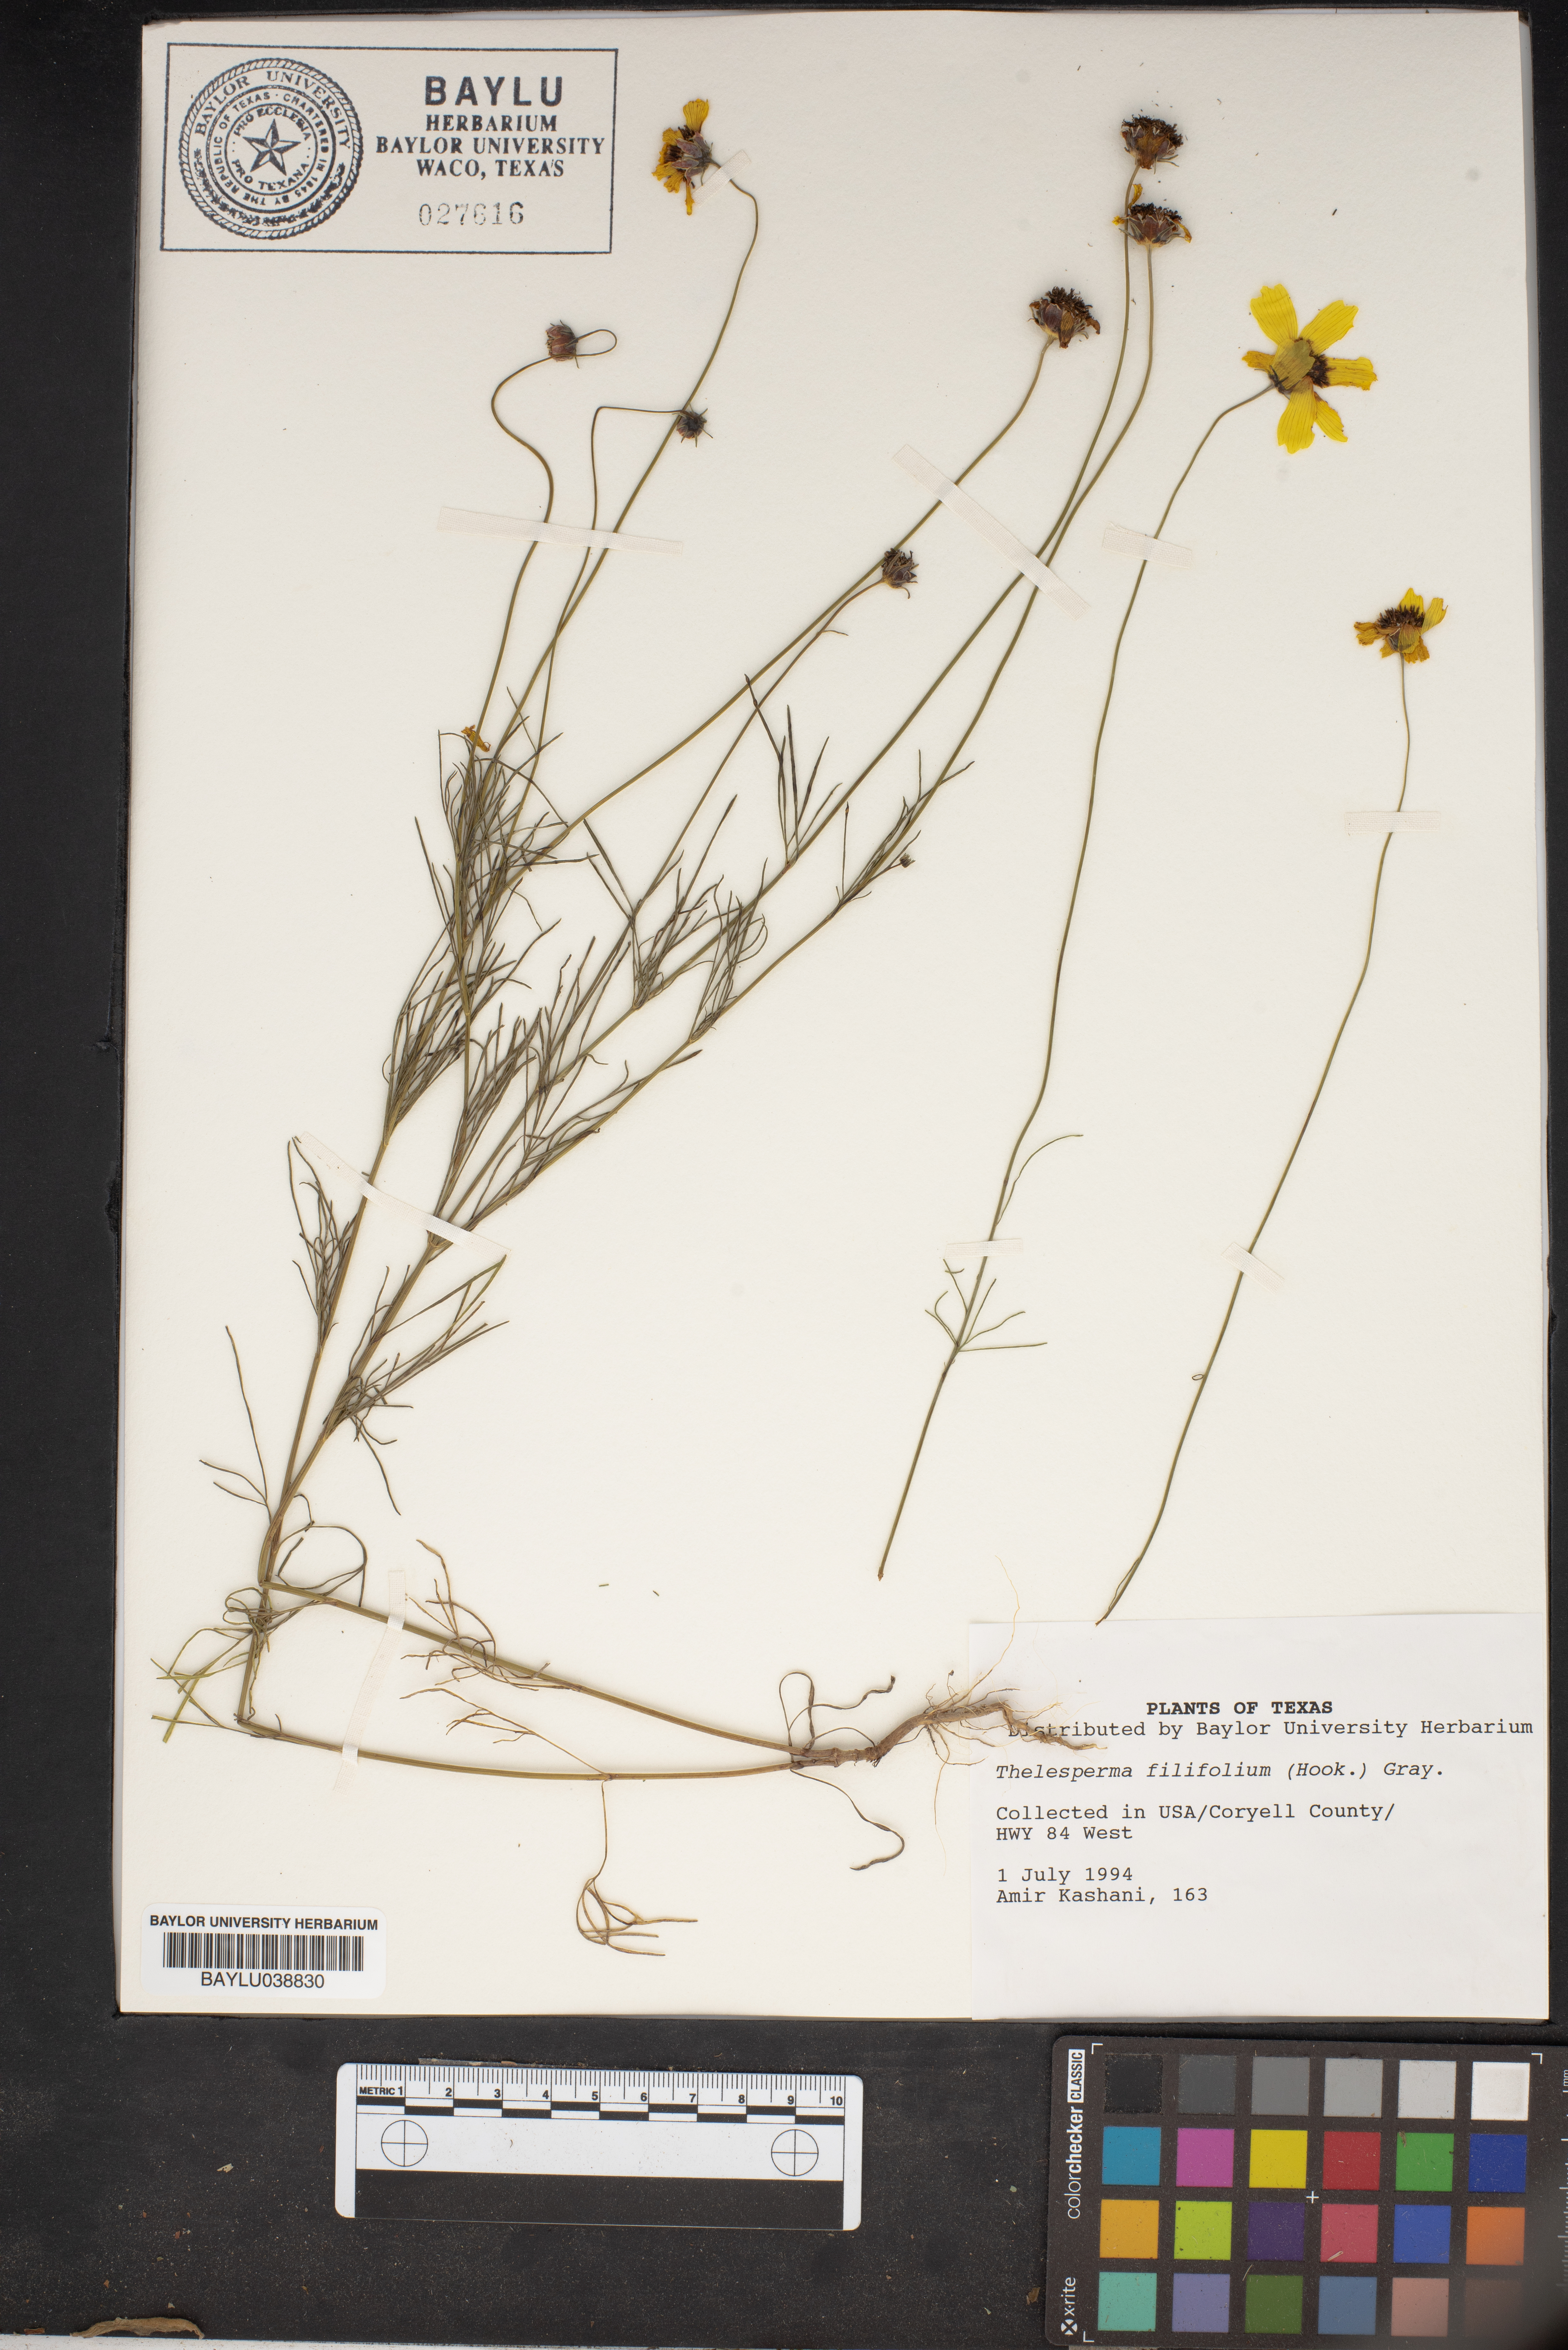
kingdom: Plantae
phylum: Tracheophyta
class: Magnoliopsida
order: Asterales
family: Asteraceae
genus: Thelesperma
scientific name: Thelesperma filifolium
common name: Stiff greenthread
